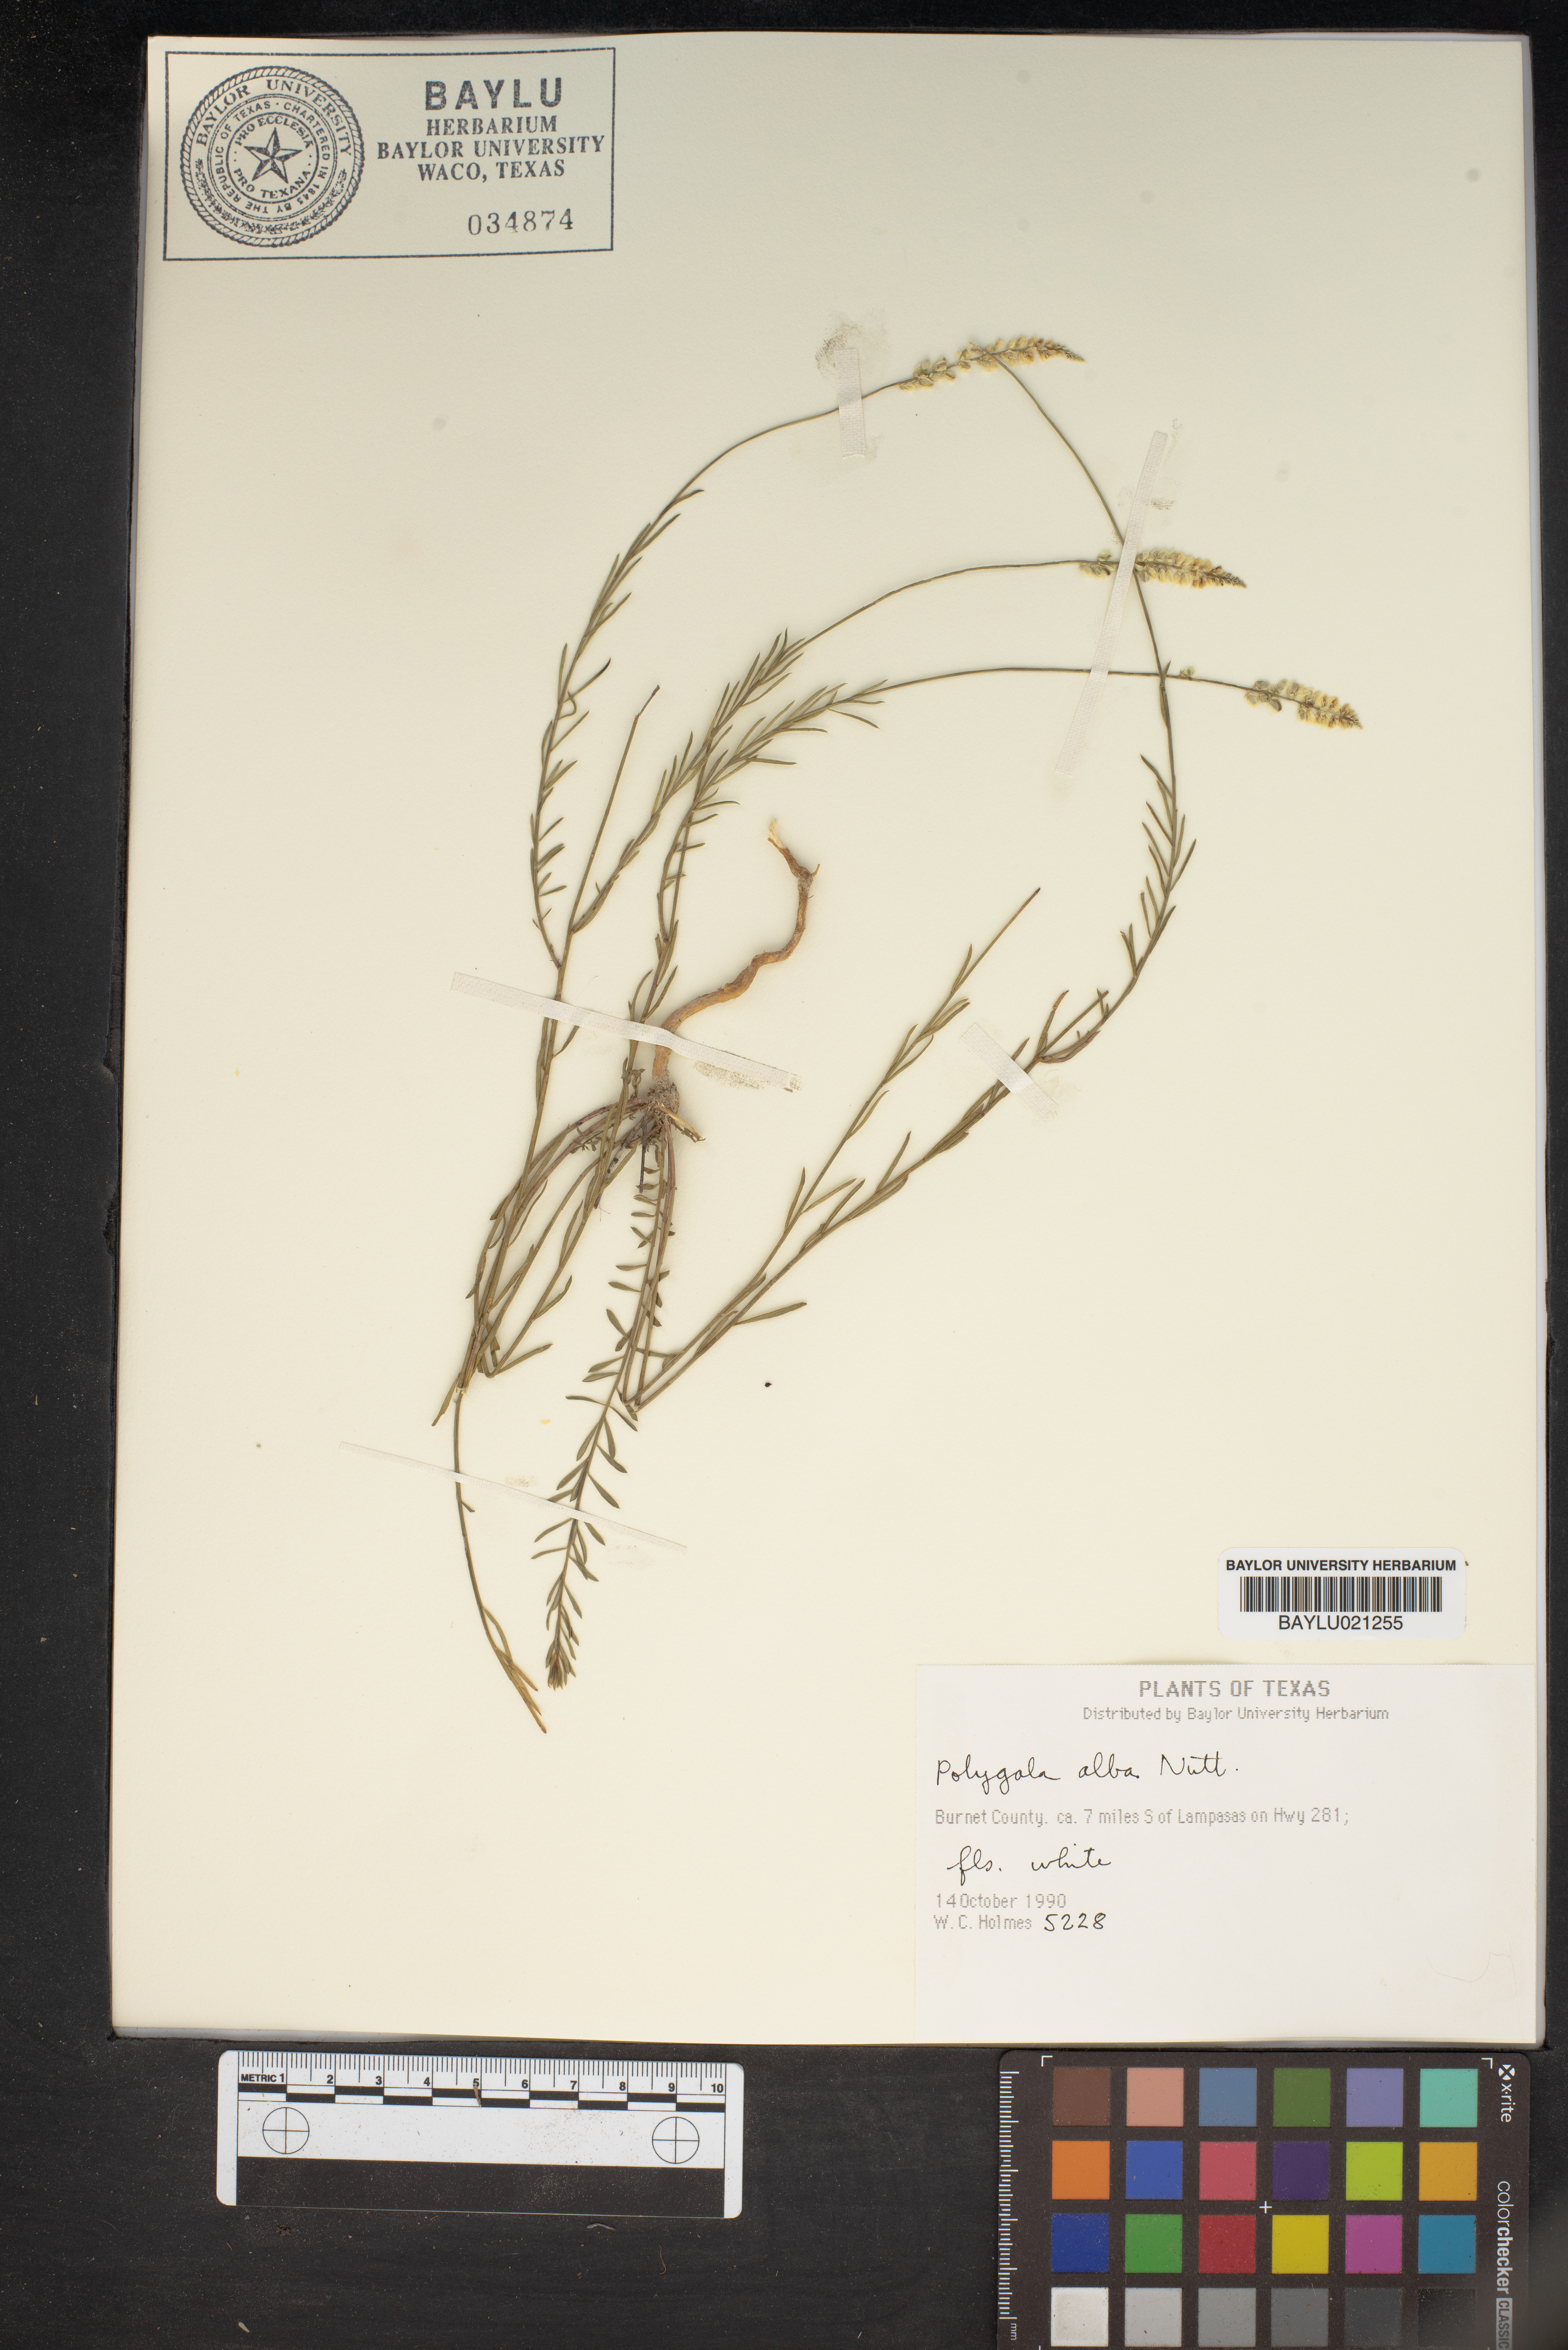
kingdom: Plantae
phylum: Tracheophyta
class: Magnoliopsida
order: Fabales
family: Polygalaceae
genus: Polygala
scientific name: Polygala alba
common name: White milkwort
